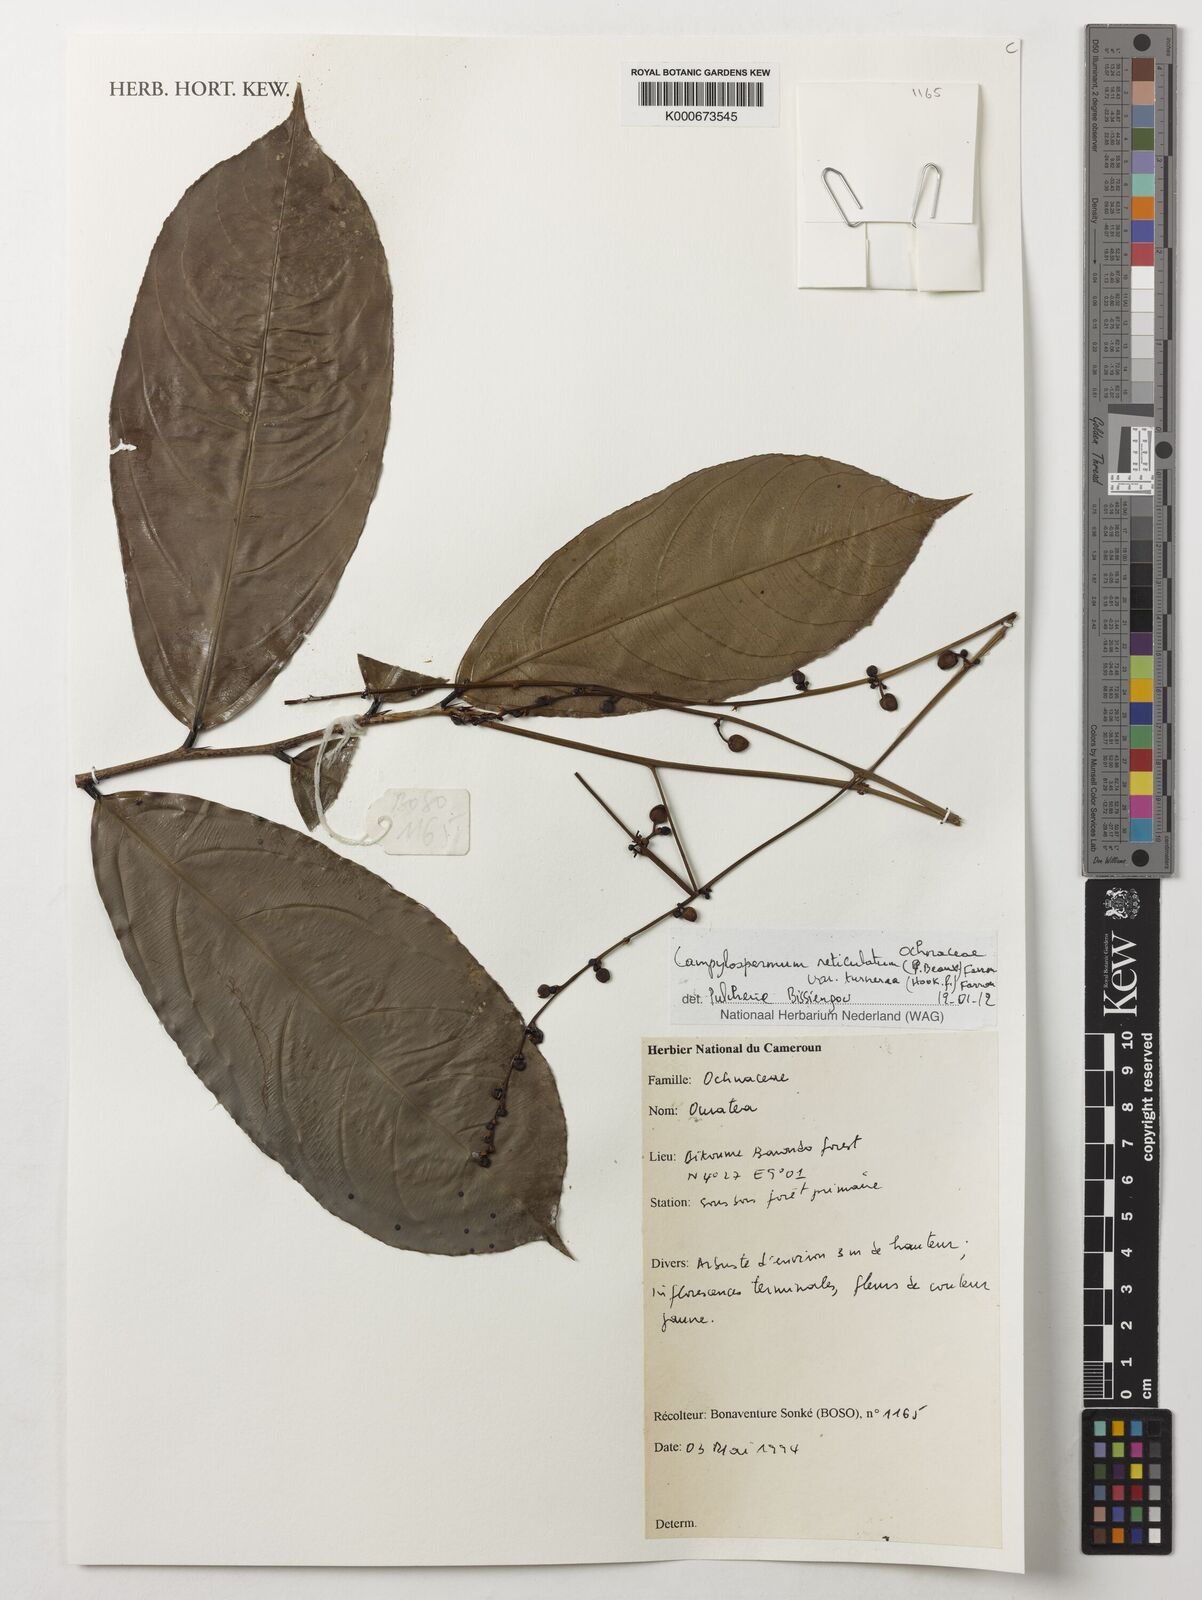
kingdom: Plantae
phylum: Tracheophyta
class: Magnoliopsida
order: Malpighiales
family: Ochnaceae
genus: Campylospermum
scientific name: Campylospermum reticulatum
